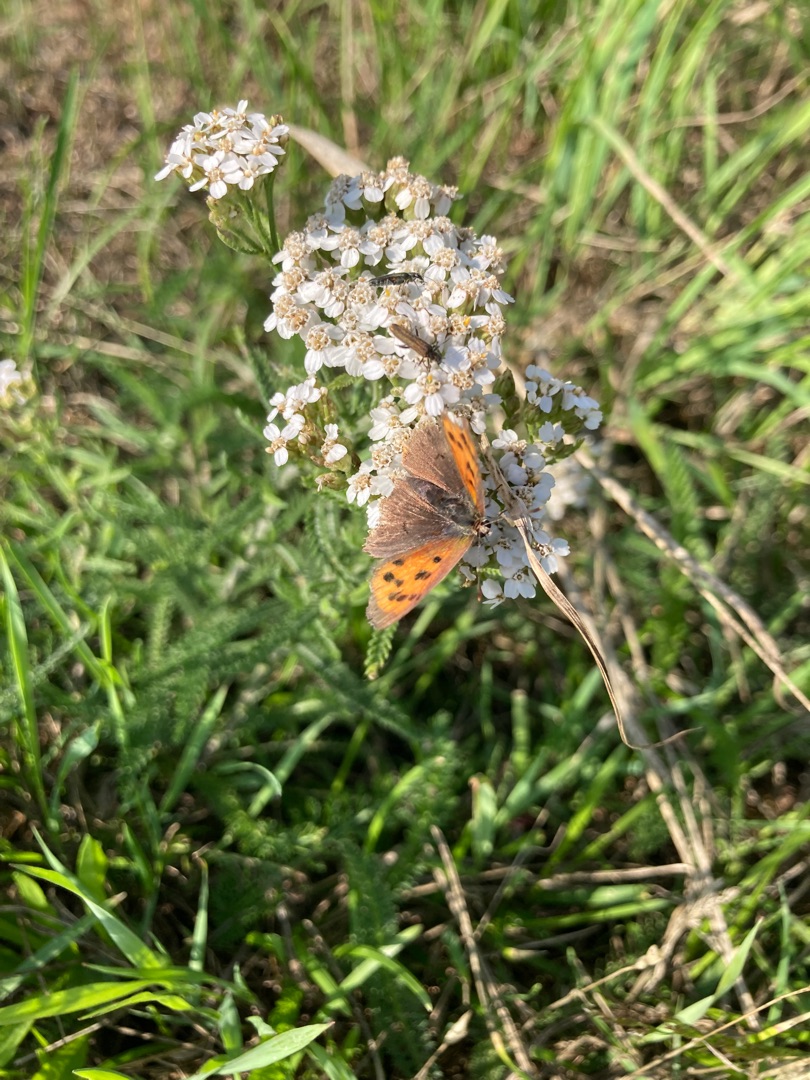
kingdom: Animalia
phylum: Arthropoda
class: Insecta
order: Lepidoptera
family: Lycaenidae
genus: Lycaena
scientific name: Lycaena phlaeas
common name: Lille ildfugl
